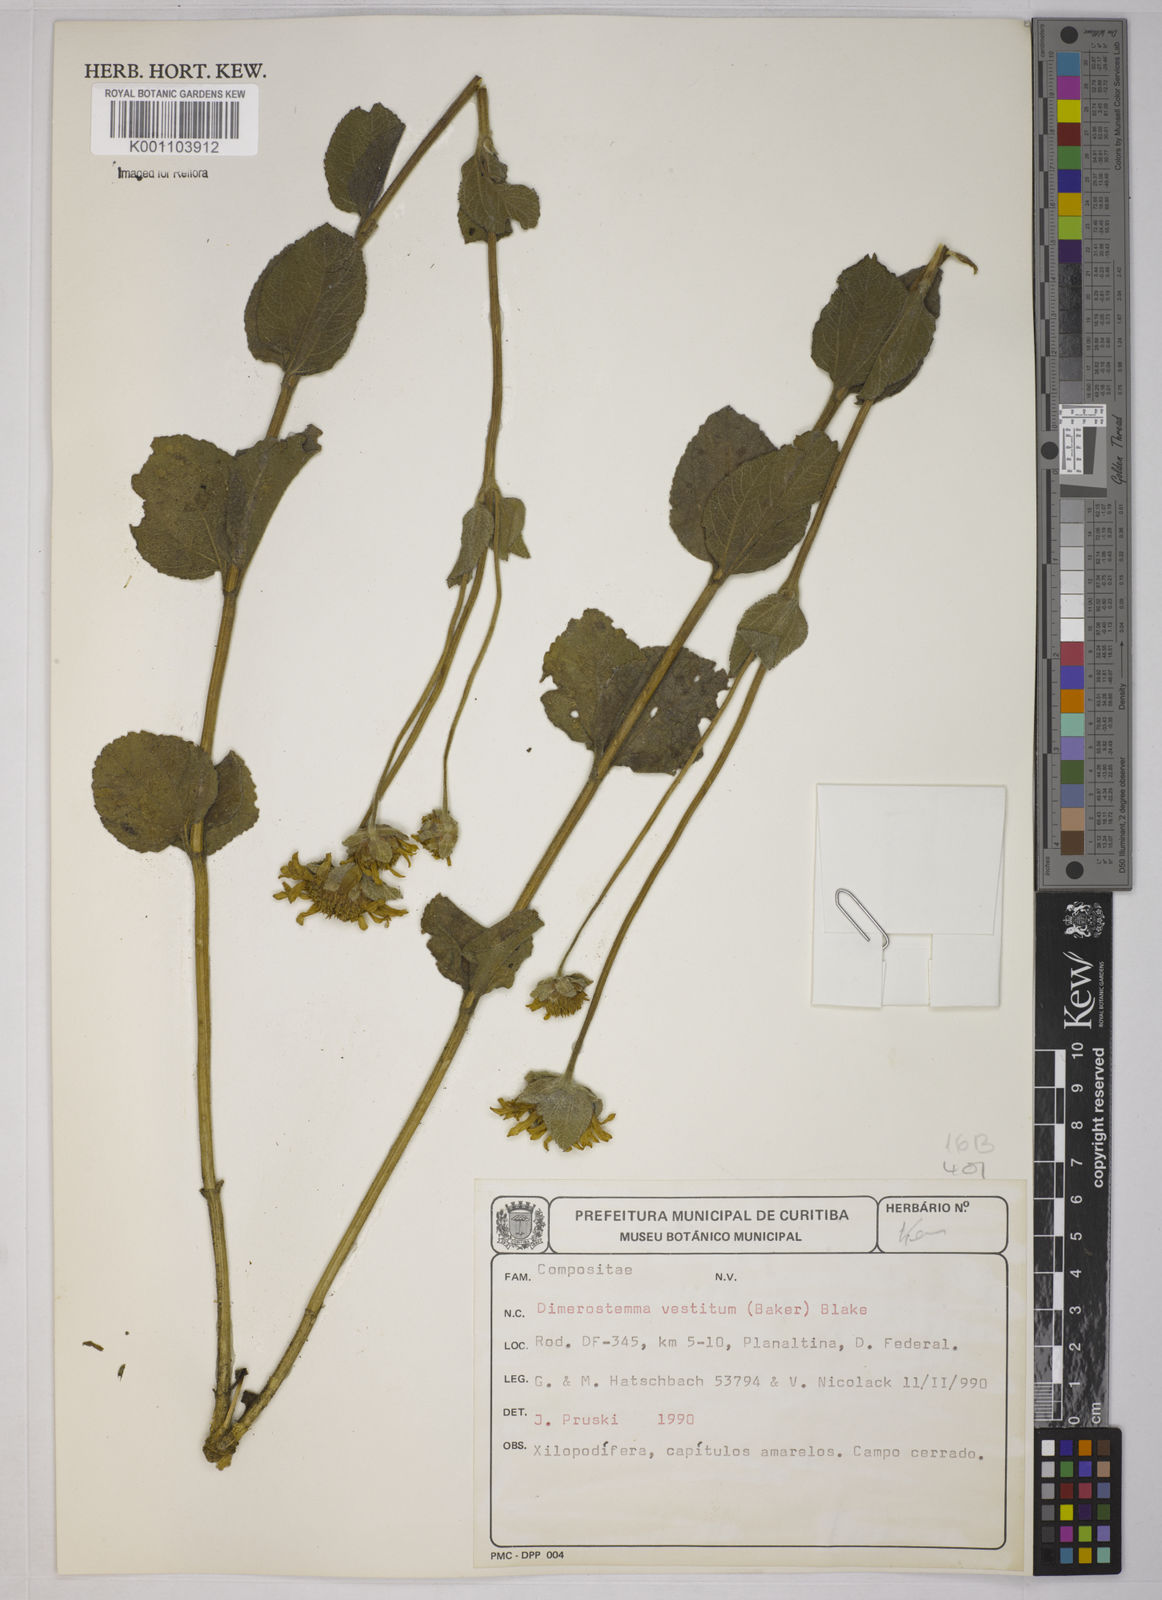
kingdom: Plantae
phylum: Tracheophyta
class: Magnoliopsida
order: Asterales
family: Asteraceae
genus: Dimerostemma
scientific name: Dimerostemma vestitum
